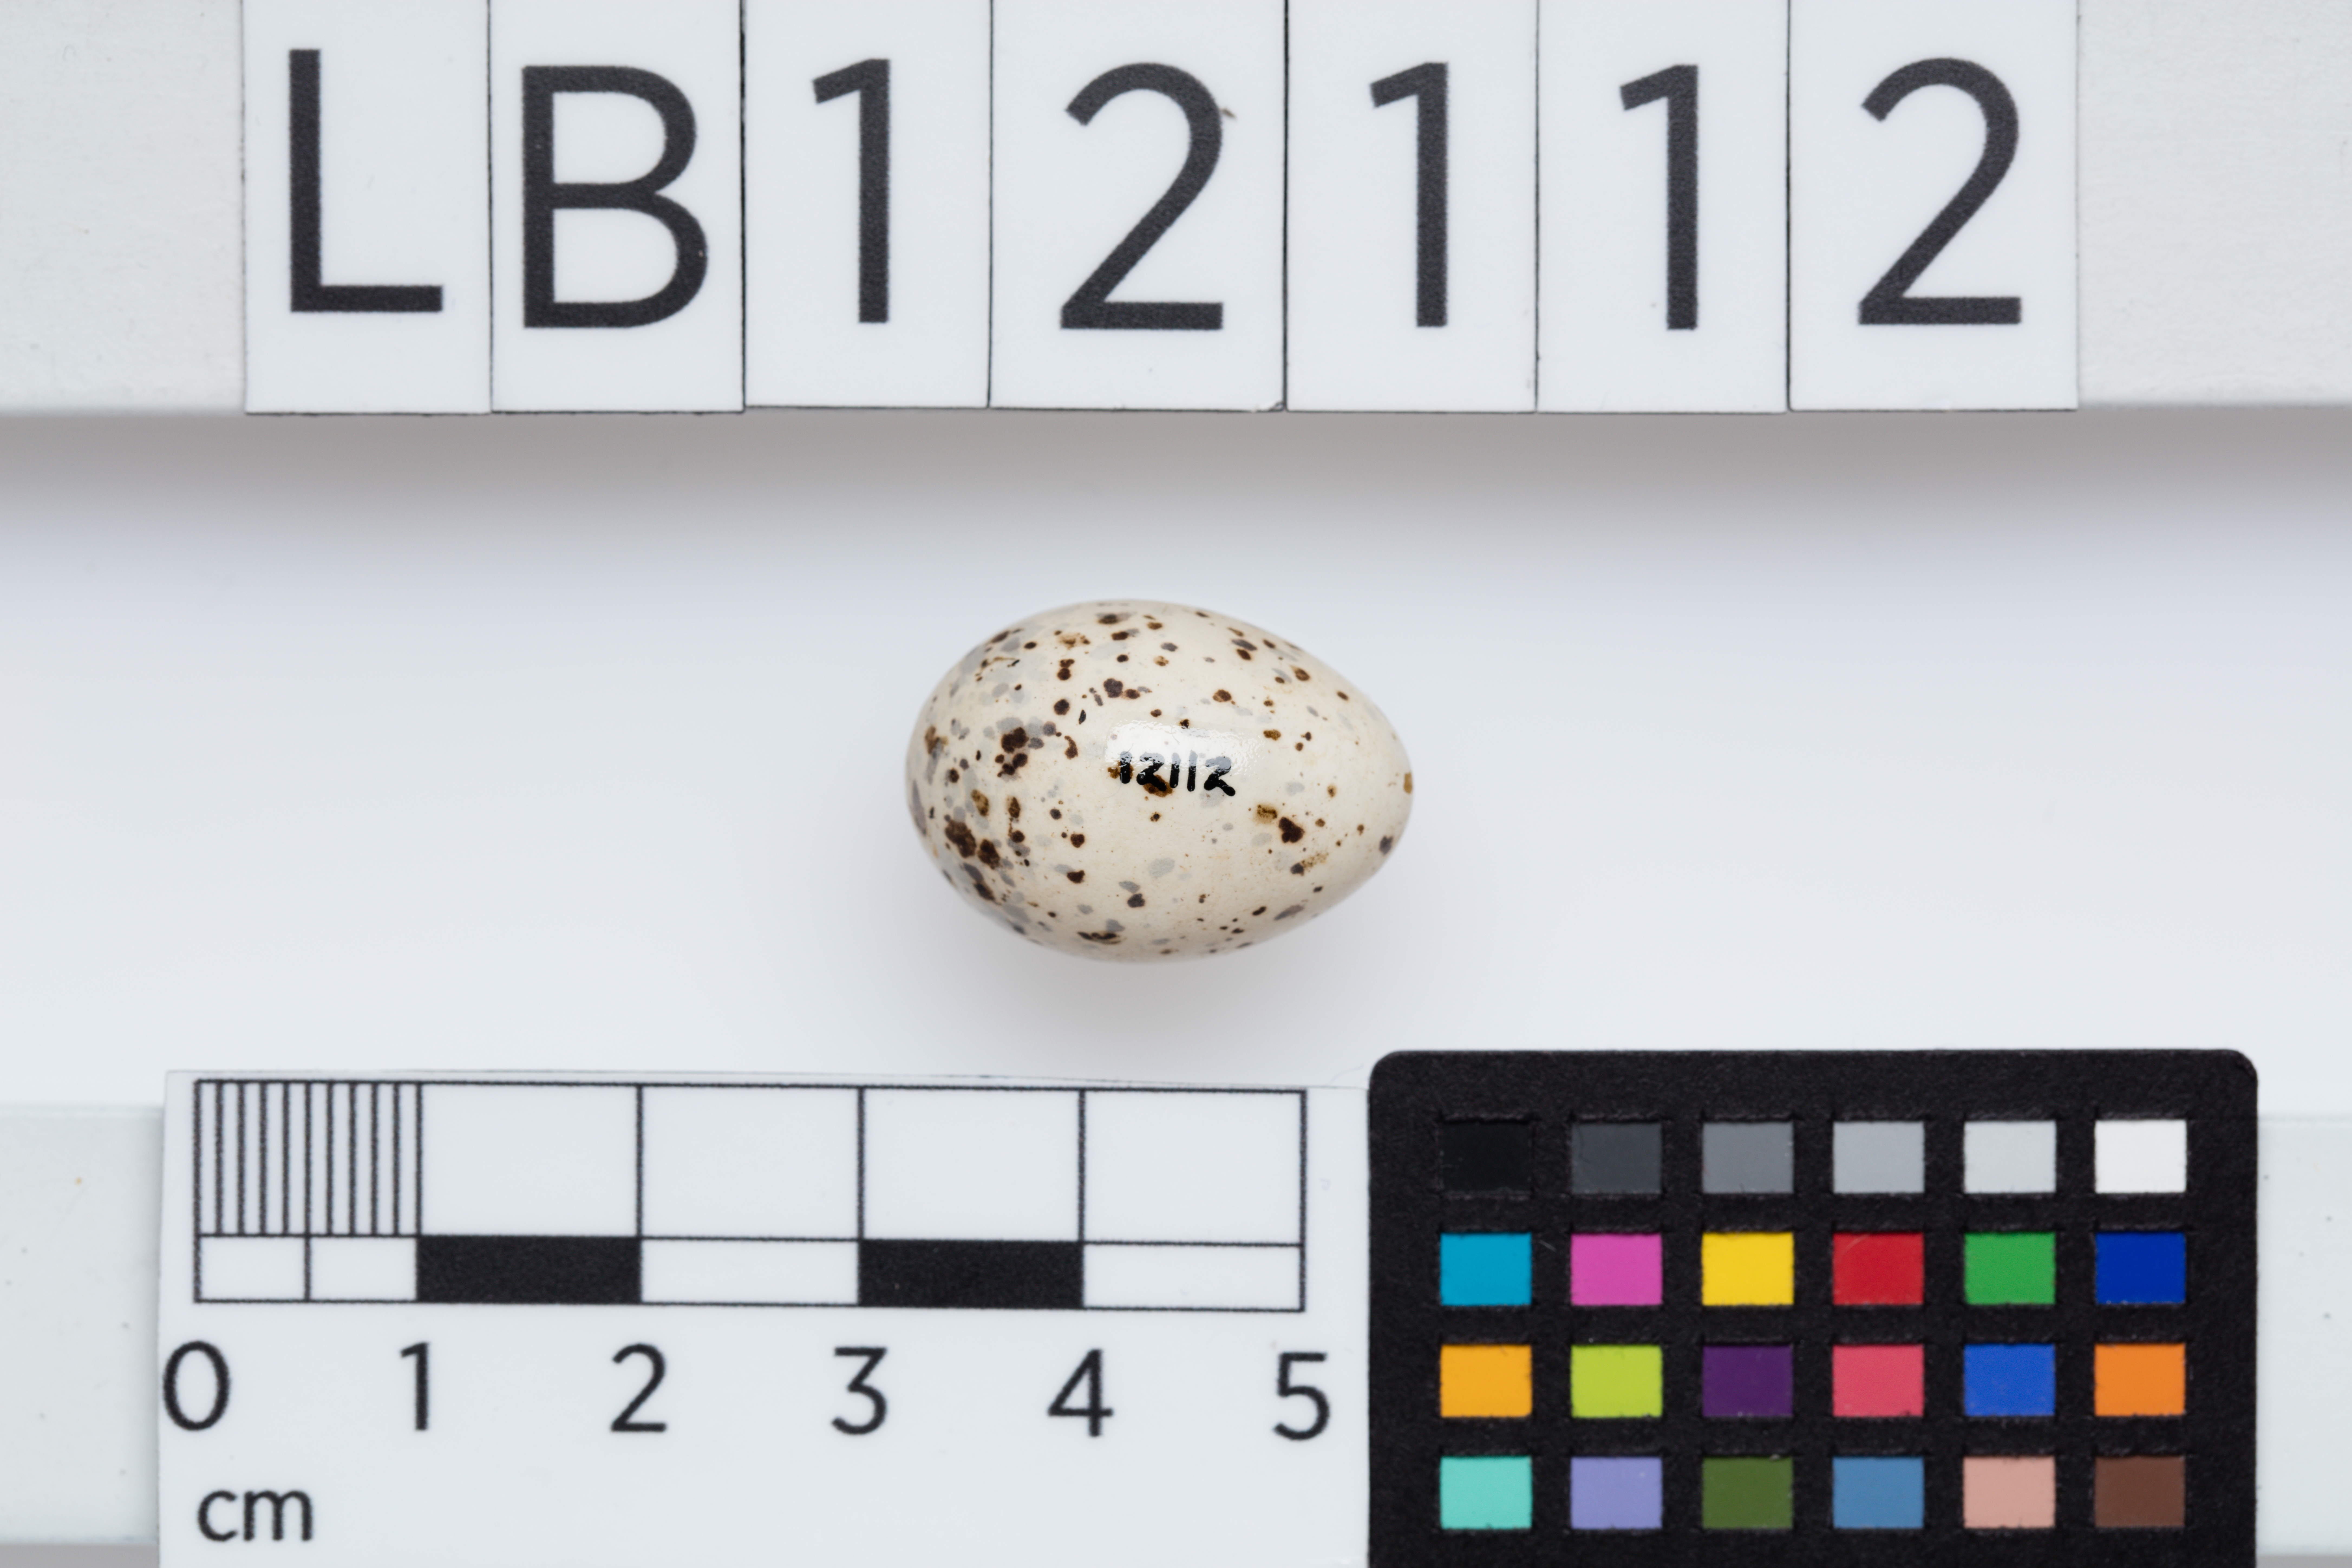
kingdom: Animalia
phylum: Chordata
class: Aves
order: Passeriformes
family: Meliphagidae
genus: Certhionyx
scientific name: Certhionyx variegatus
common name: Pied honeyeater
